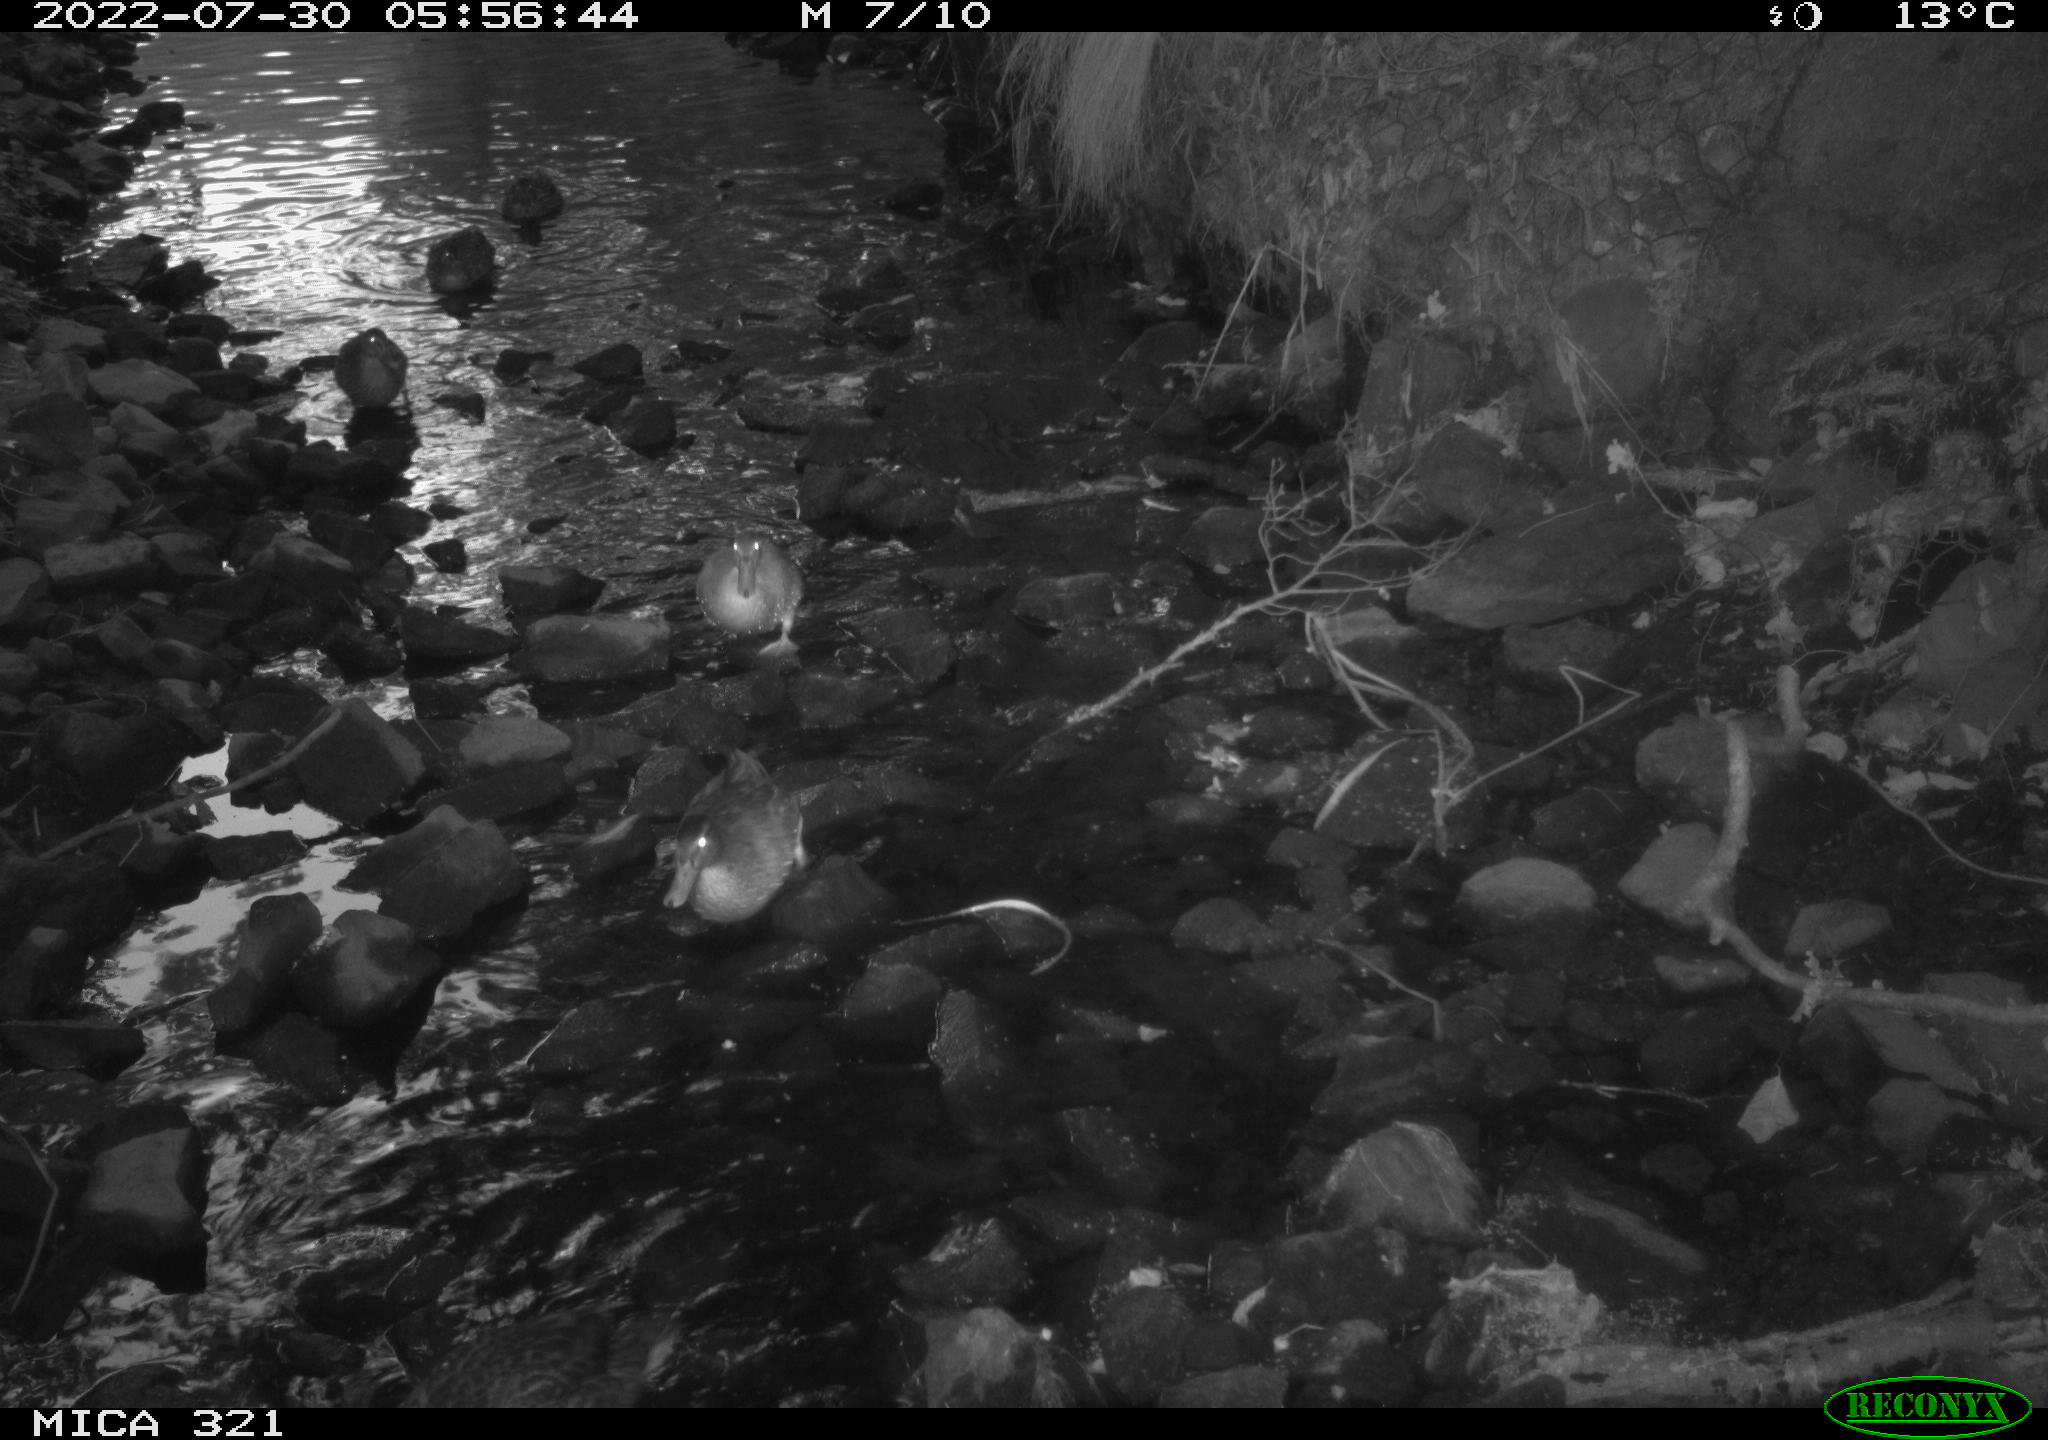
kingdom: Animalia
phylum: Chordata
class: Aves
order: Anseriformes
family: Anatidae
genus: Anas
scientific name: Anas platyrhynchos
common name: Mallard
